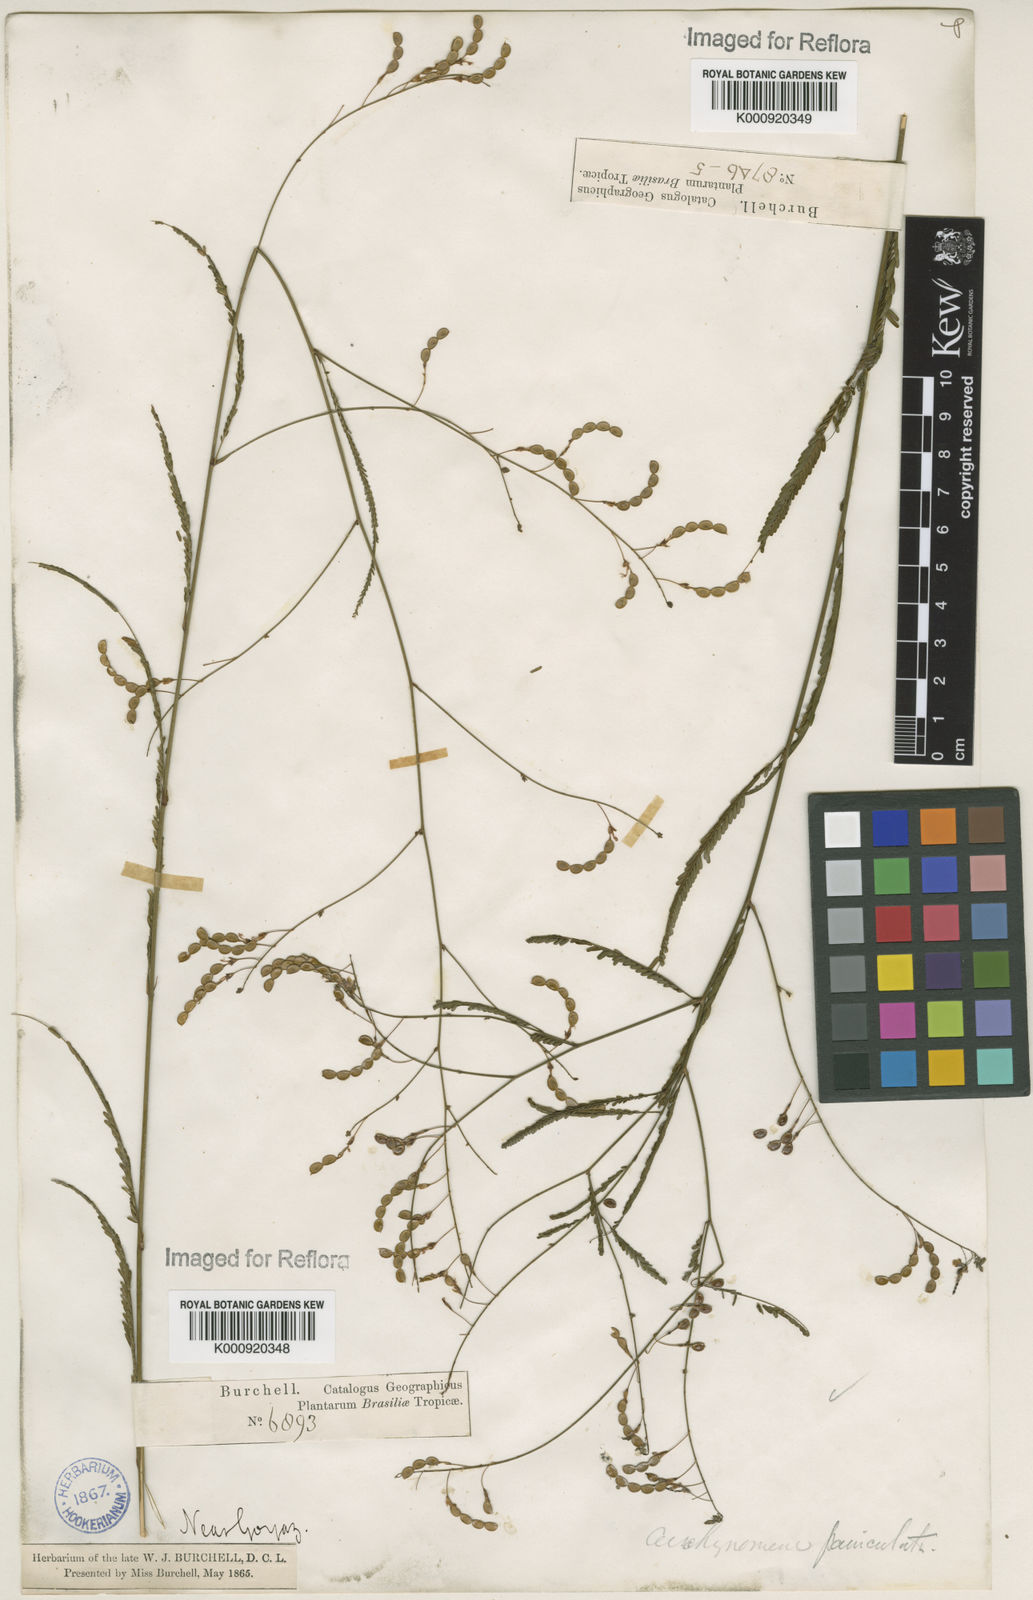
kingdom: Plantae
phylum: Tracheophyta
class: Magnoliopsida
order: Fabales
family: Fabaceae
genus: Ctenodon
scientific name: Ctenodon paniculatus
